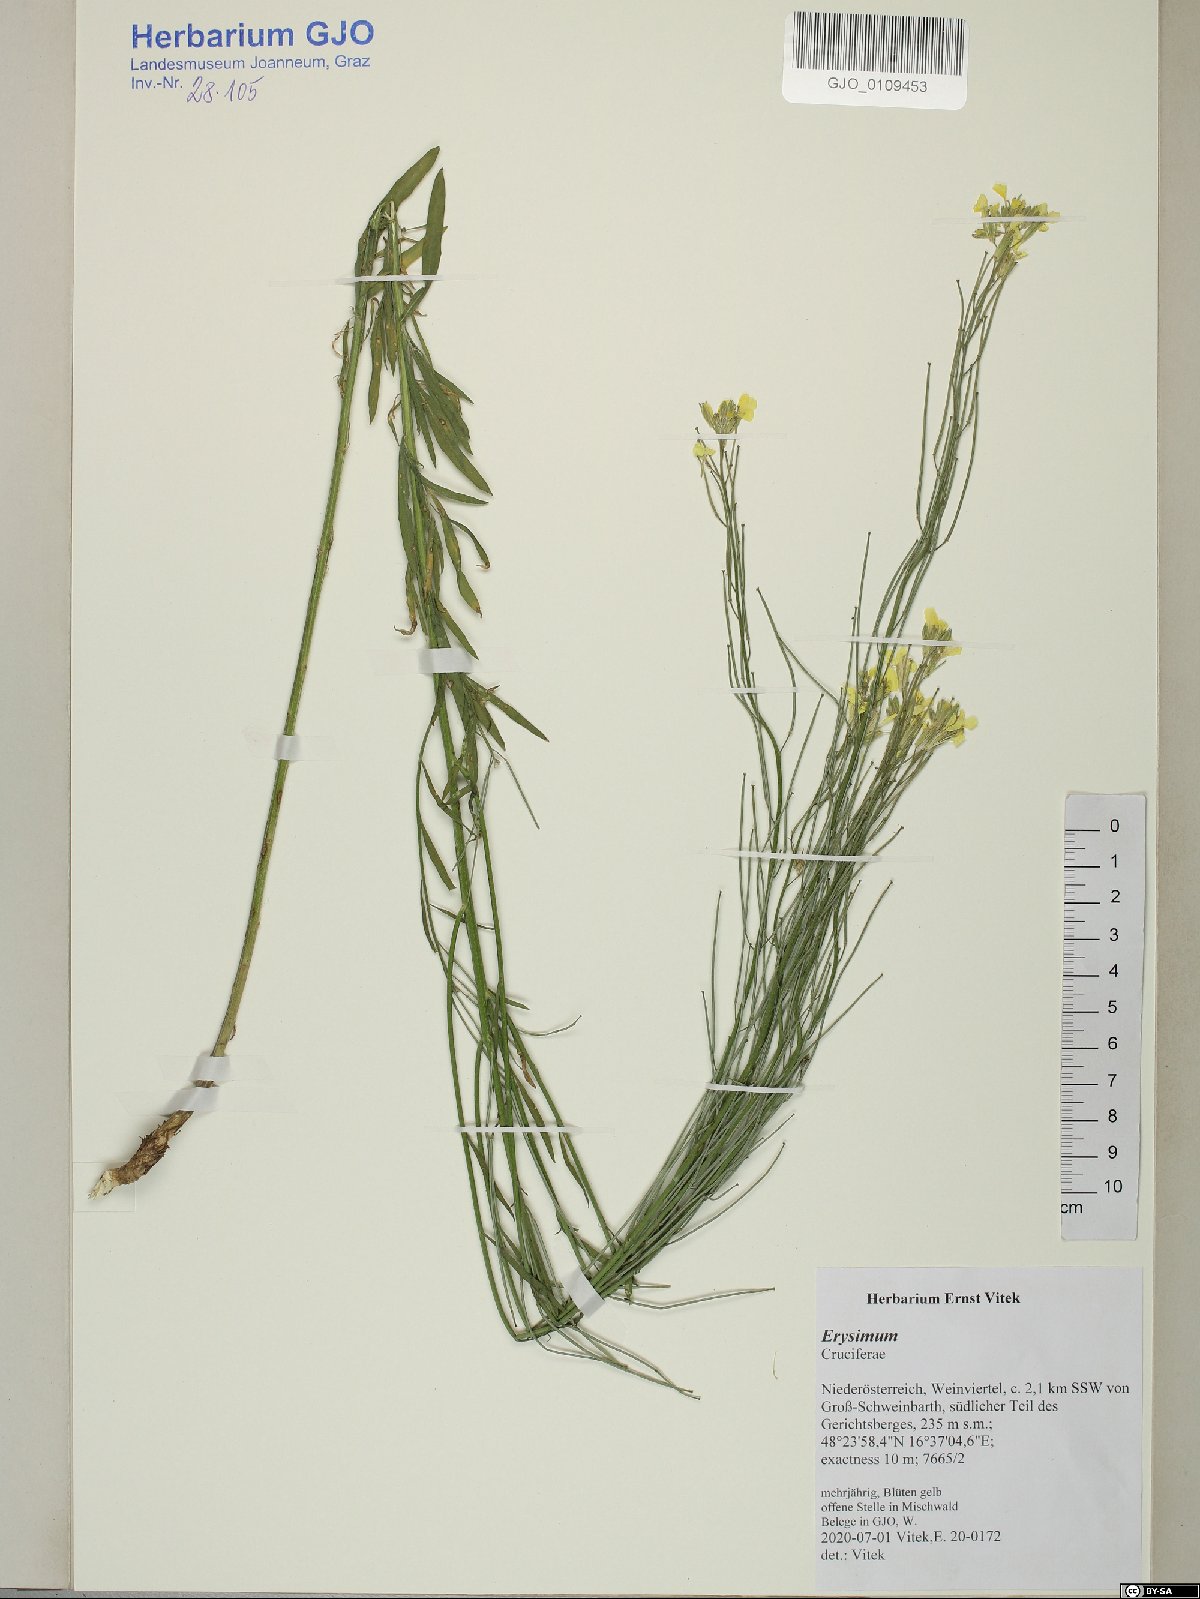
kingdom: Plantae
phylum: Tracheophyta
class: Magnoliopsida
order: Brassicales
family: Brassicaceae
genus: Erysimum
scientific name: Erysimum
